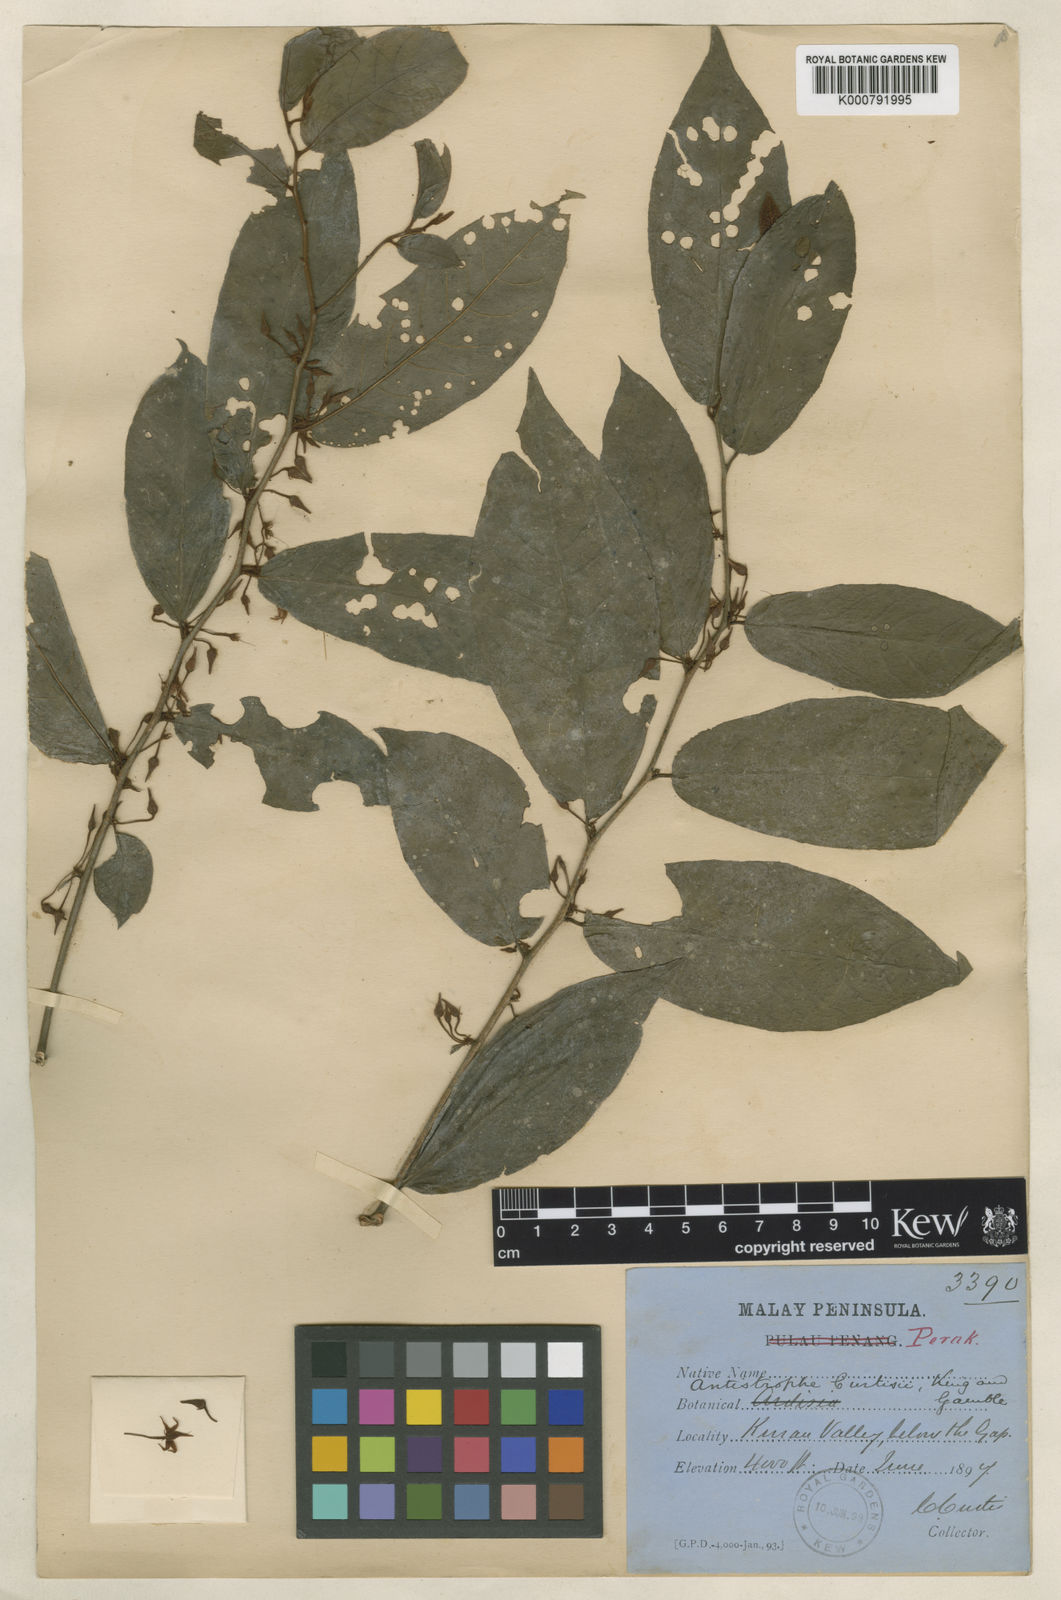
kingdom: Plantae
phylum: Tracheophyta
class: Magnoliopsida
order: Ericales
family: Primulaceae
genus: Antistrophe
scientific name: Antistrophe curtisii
